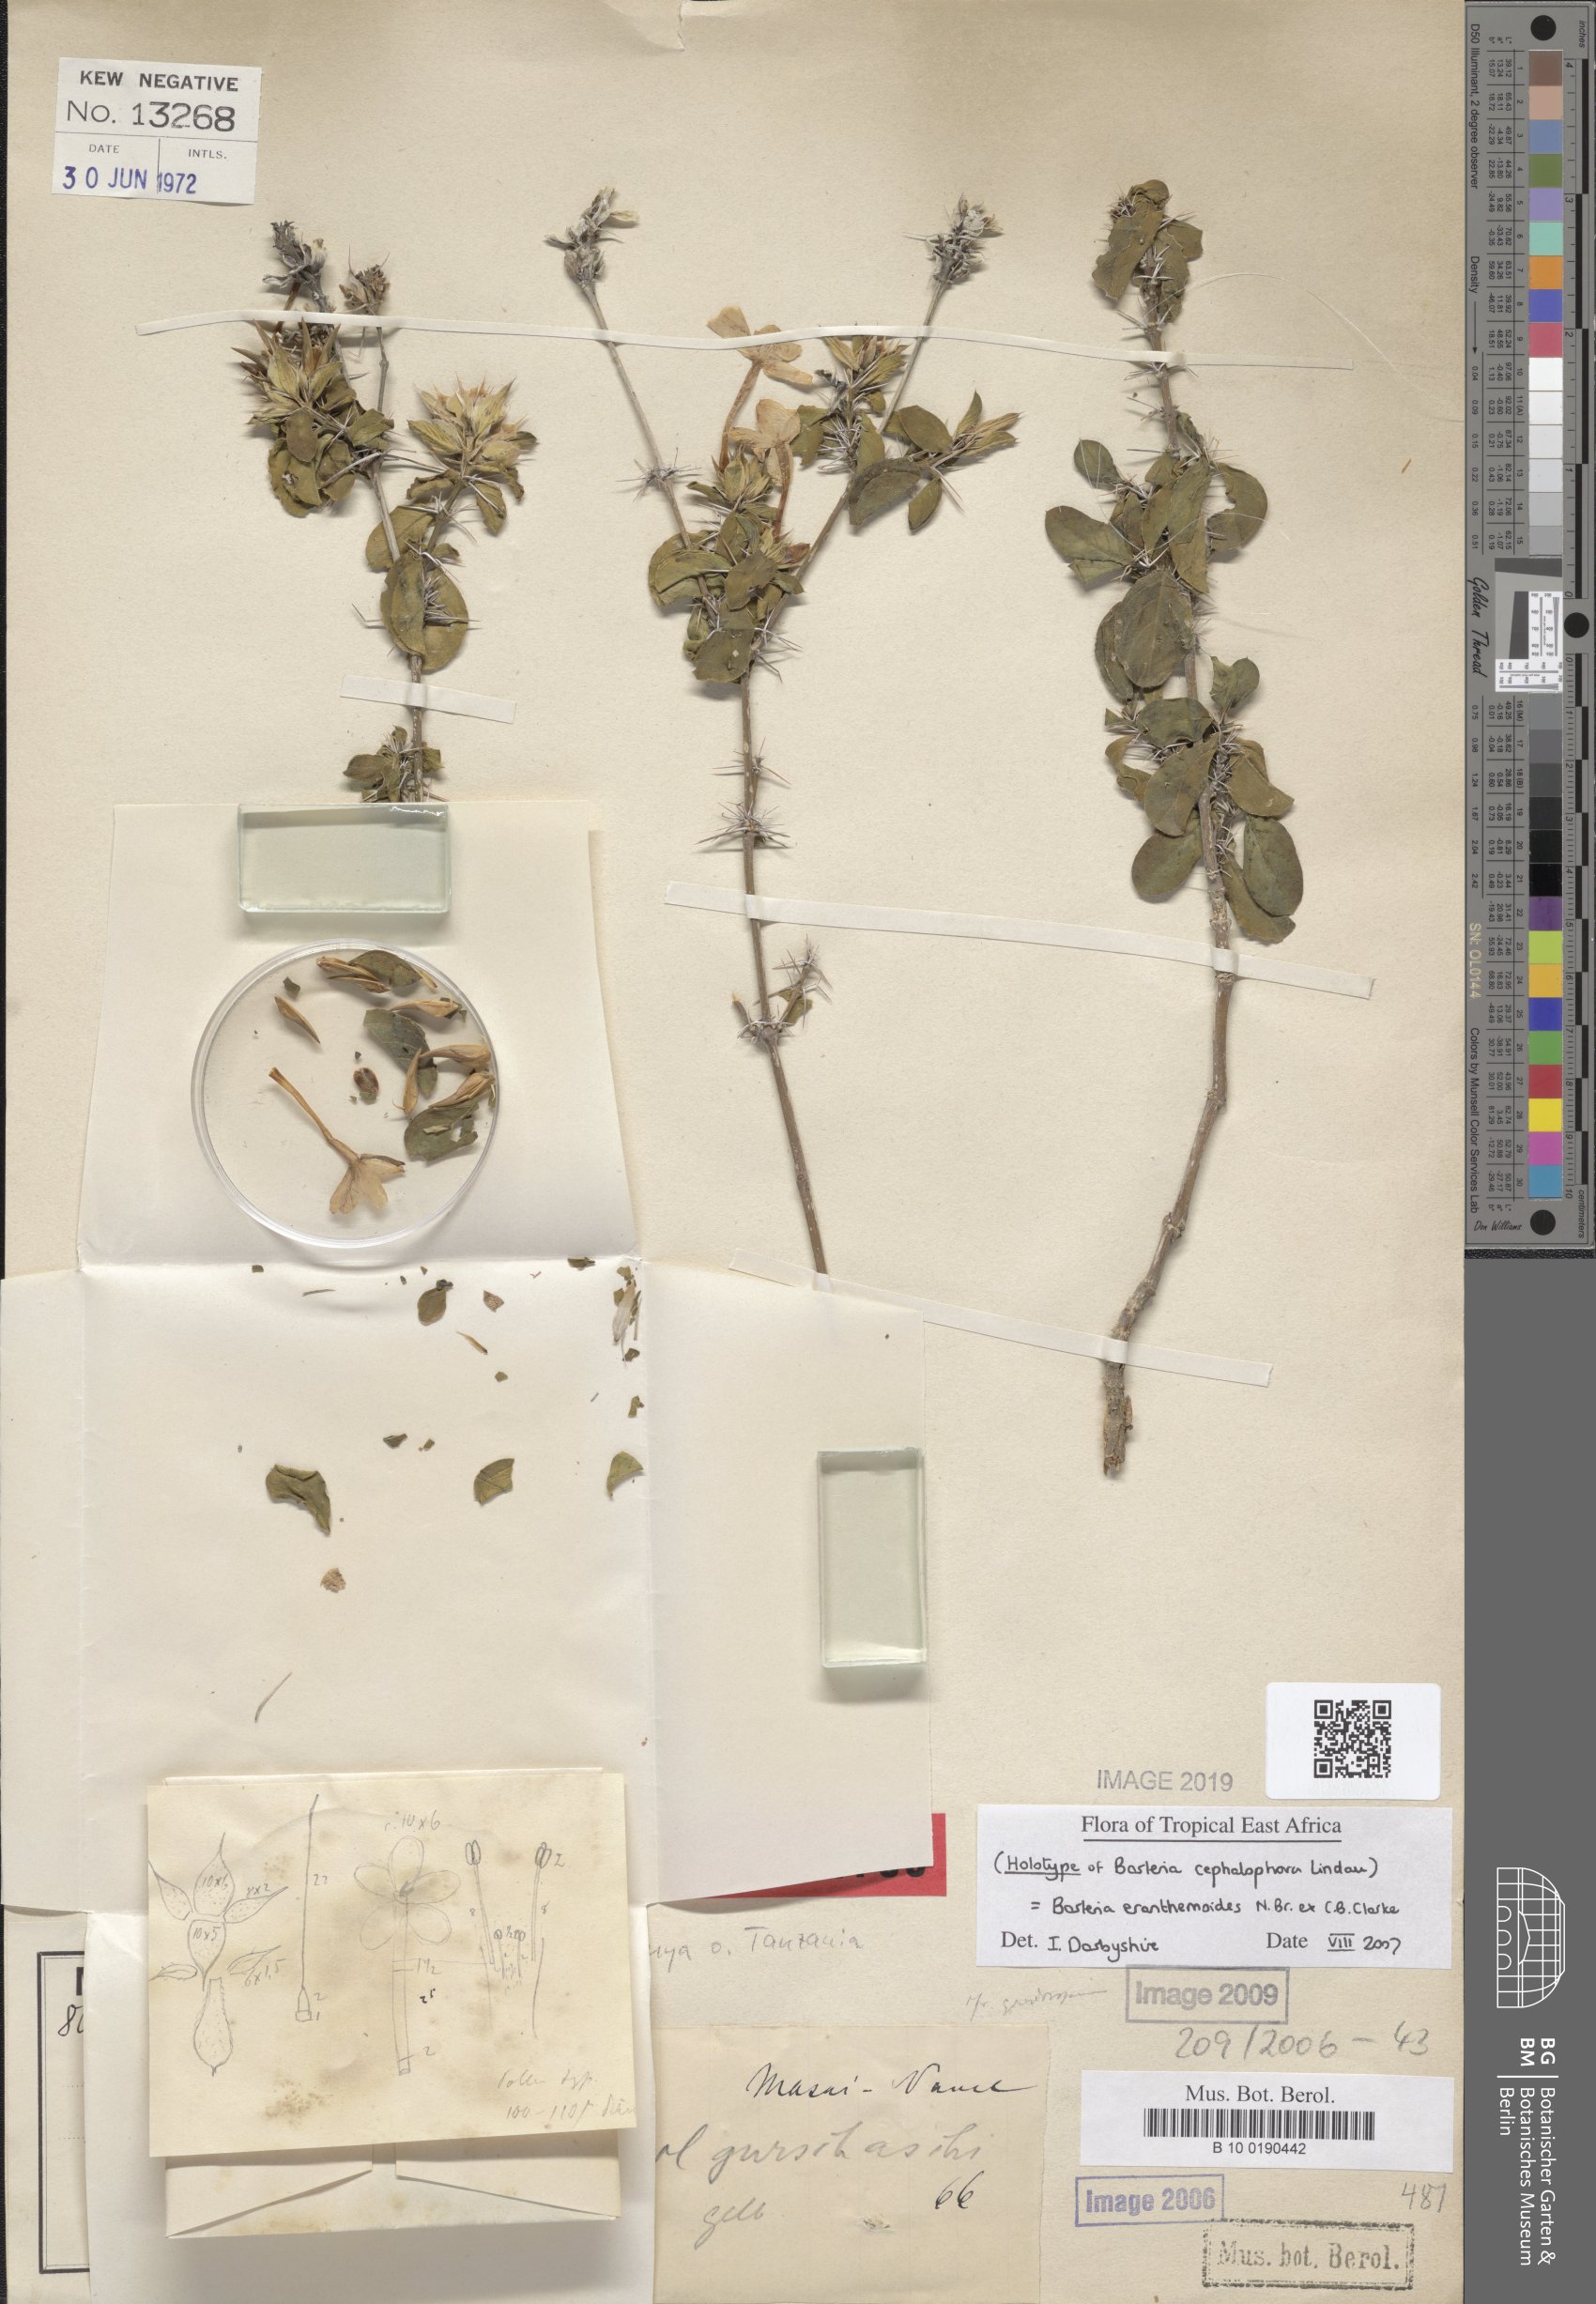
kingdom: Plantae
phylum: Tracheophyta
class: Magnoliopsida
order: Lamiales
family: Acanthaceae
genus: Barleria
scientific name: Barleria eranthemoides
